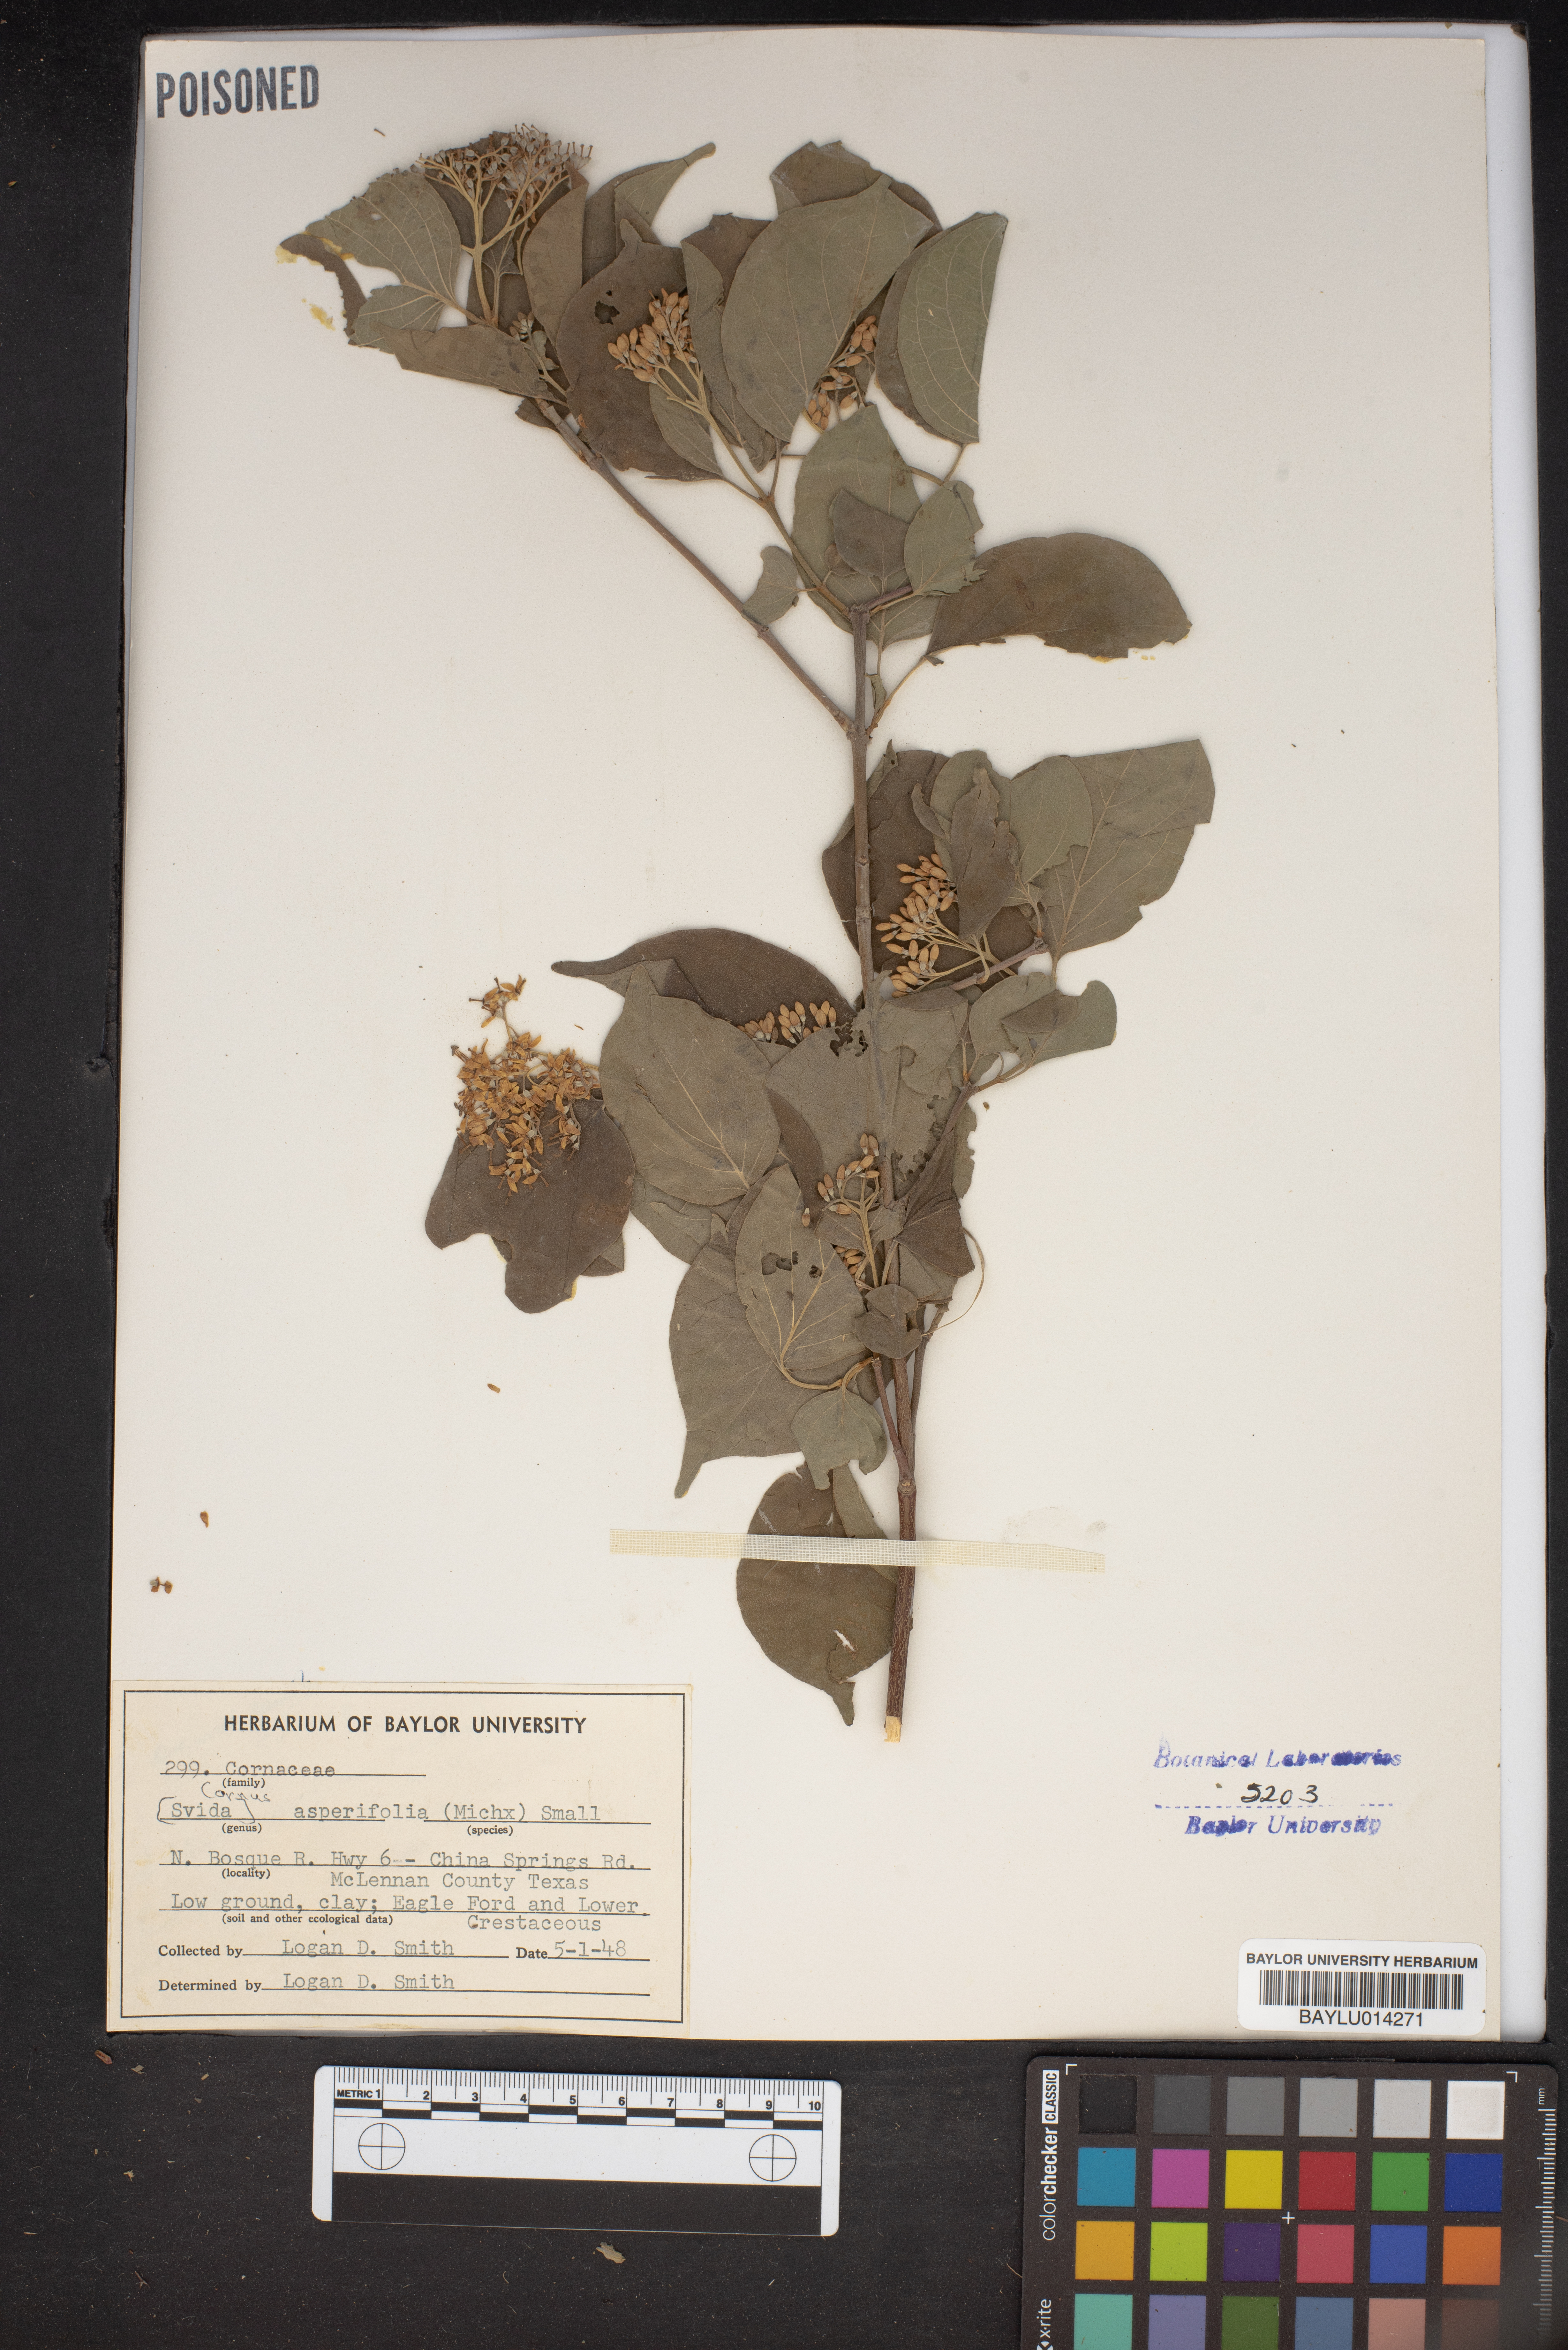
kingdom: Plantae
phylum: Tracheophyta
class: Magnoliopsida
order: Cornales
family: Cornaceae
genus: Cornus
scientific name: Cornus asperifolia
